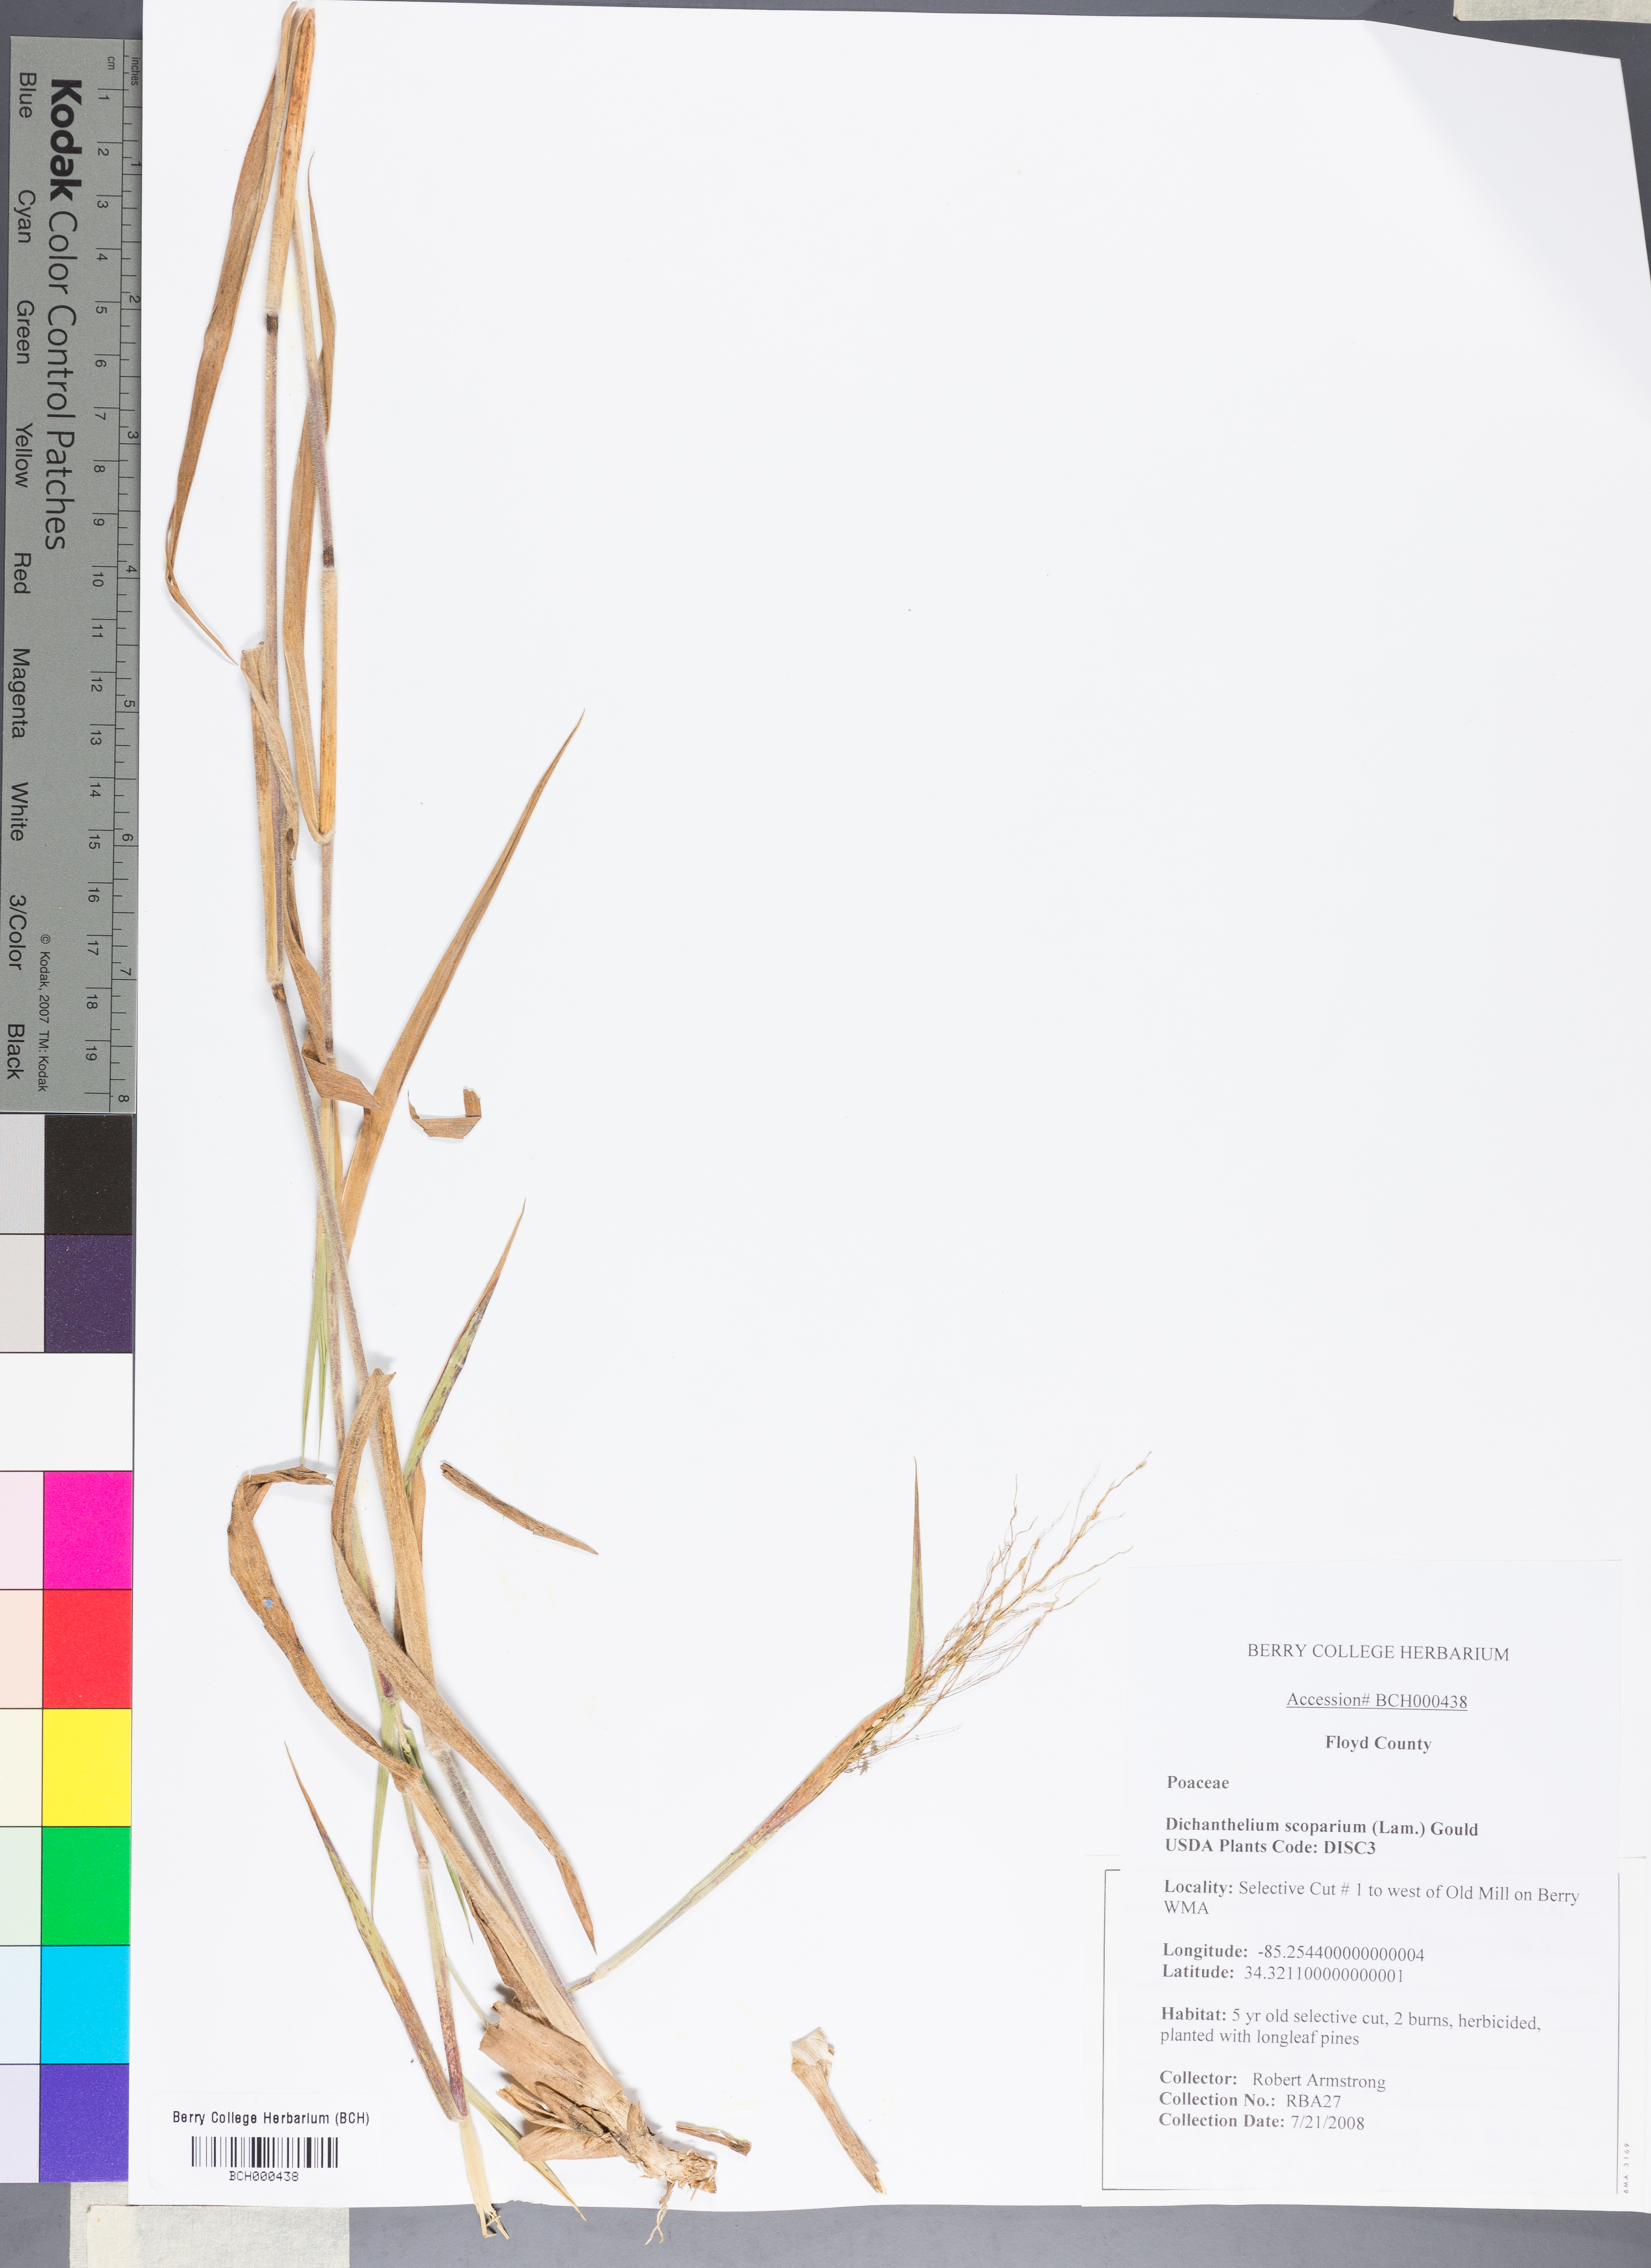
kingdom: Plantae
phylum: Tracheophyta
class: Liliopsida
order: Poales
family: Poaceae
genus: Dichanthelium
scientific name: Dichanthelium scoparium
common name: Velvety panic grass
